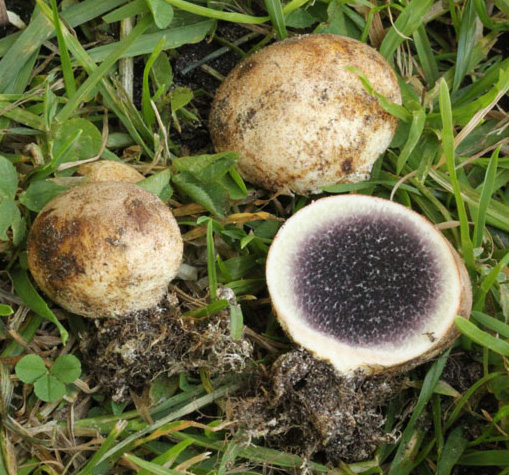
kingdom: Fungi
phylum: Basidiomycota
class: Agaricomycetes
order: Boletales
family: Sclerodermataceae
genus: Scleroderma
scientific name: Scleroderma bovista
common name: bovist-bruskbold
